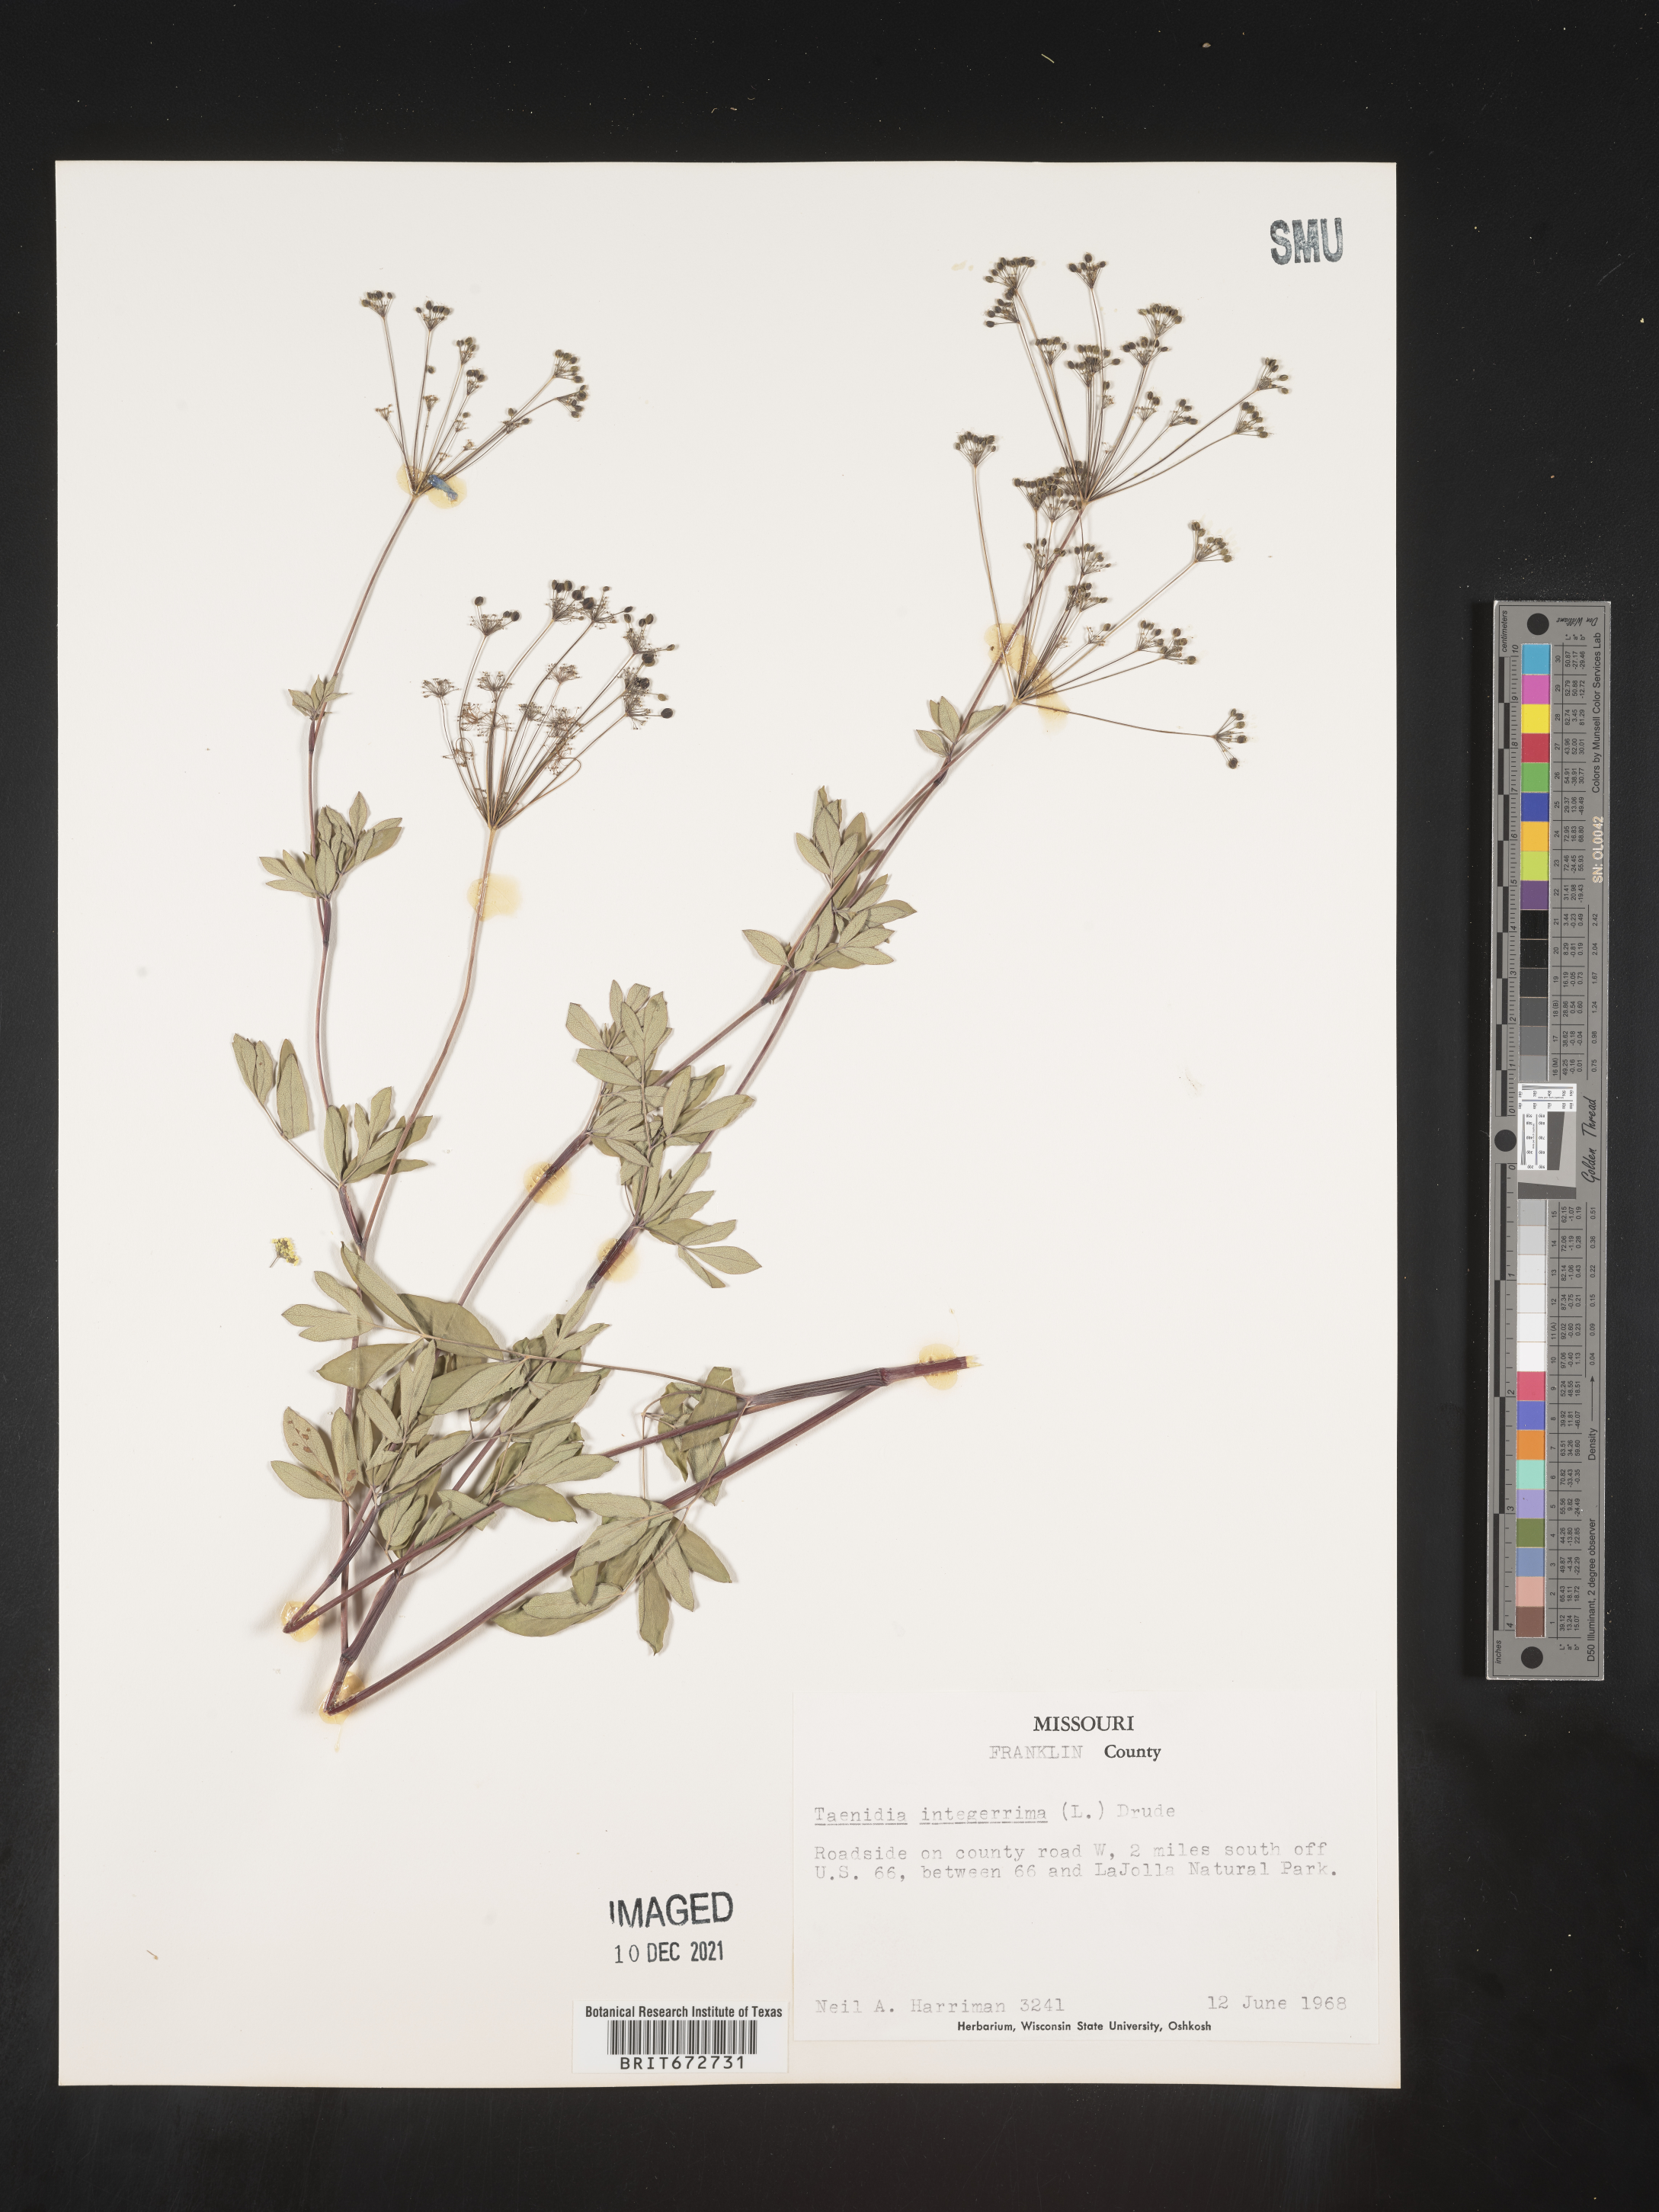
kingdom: Plantae
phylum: Tracheophyta
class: Magnoliopsida
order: Apiales
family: Apiaceae
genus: Taenidia
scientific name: Taenidia
